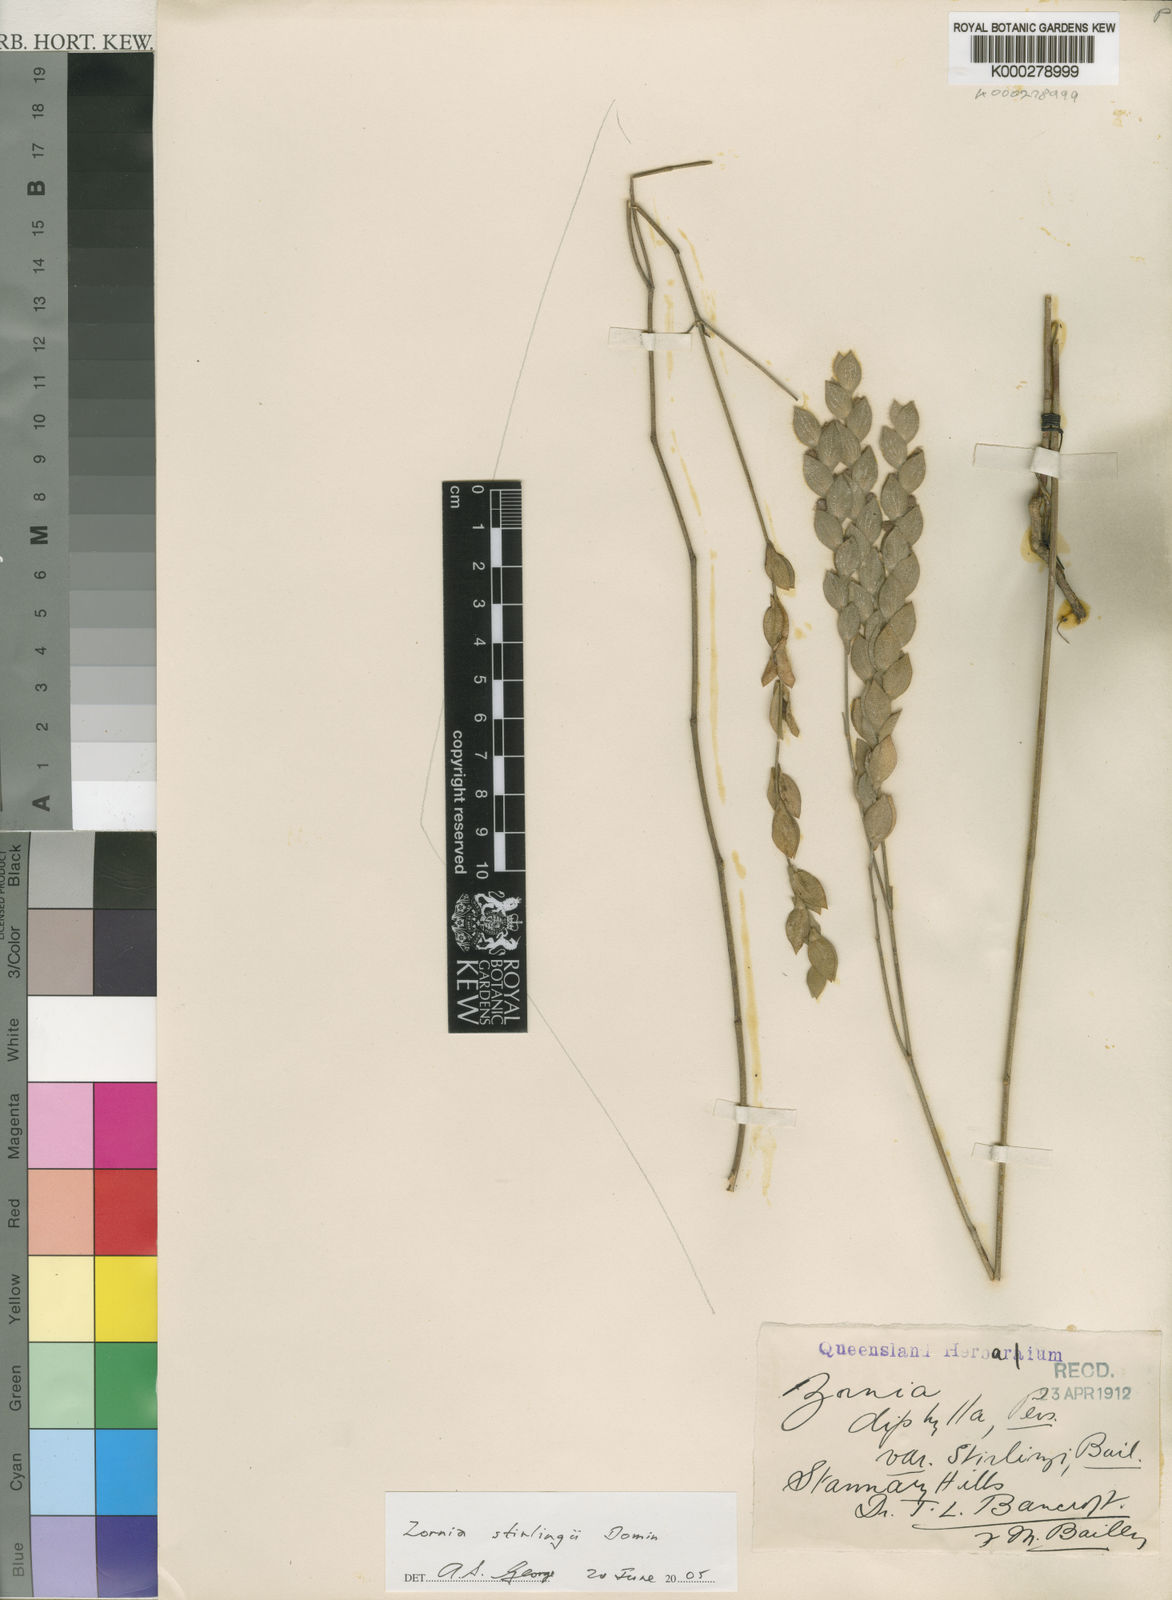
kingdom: Plantae
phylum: Tracheophyta
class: Magnoliopsida
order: Fabales
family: Fabaceae
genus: Zornia
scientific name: Zornia stirlingii
